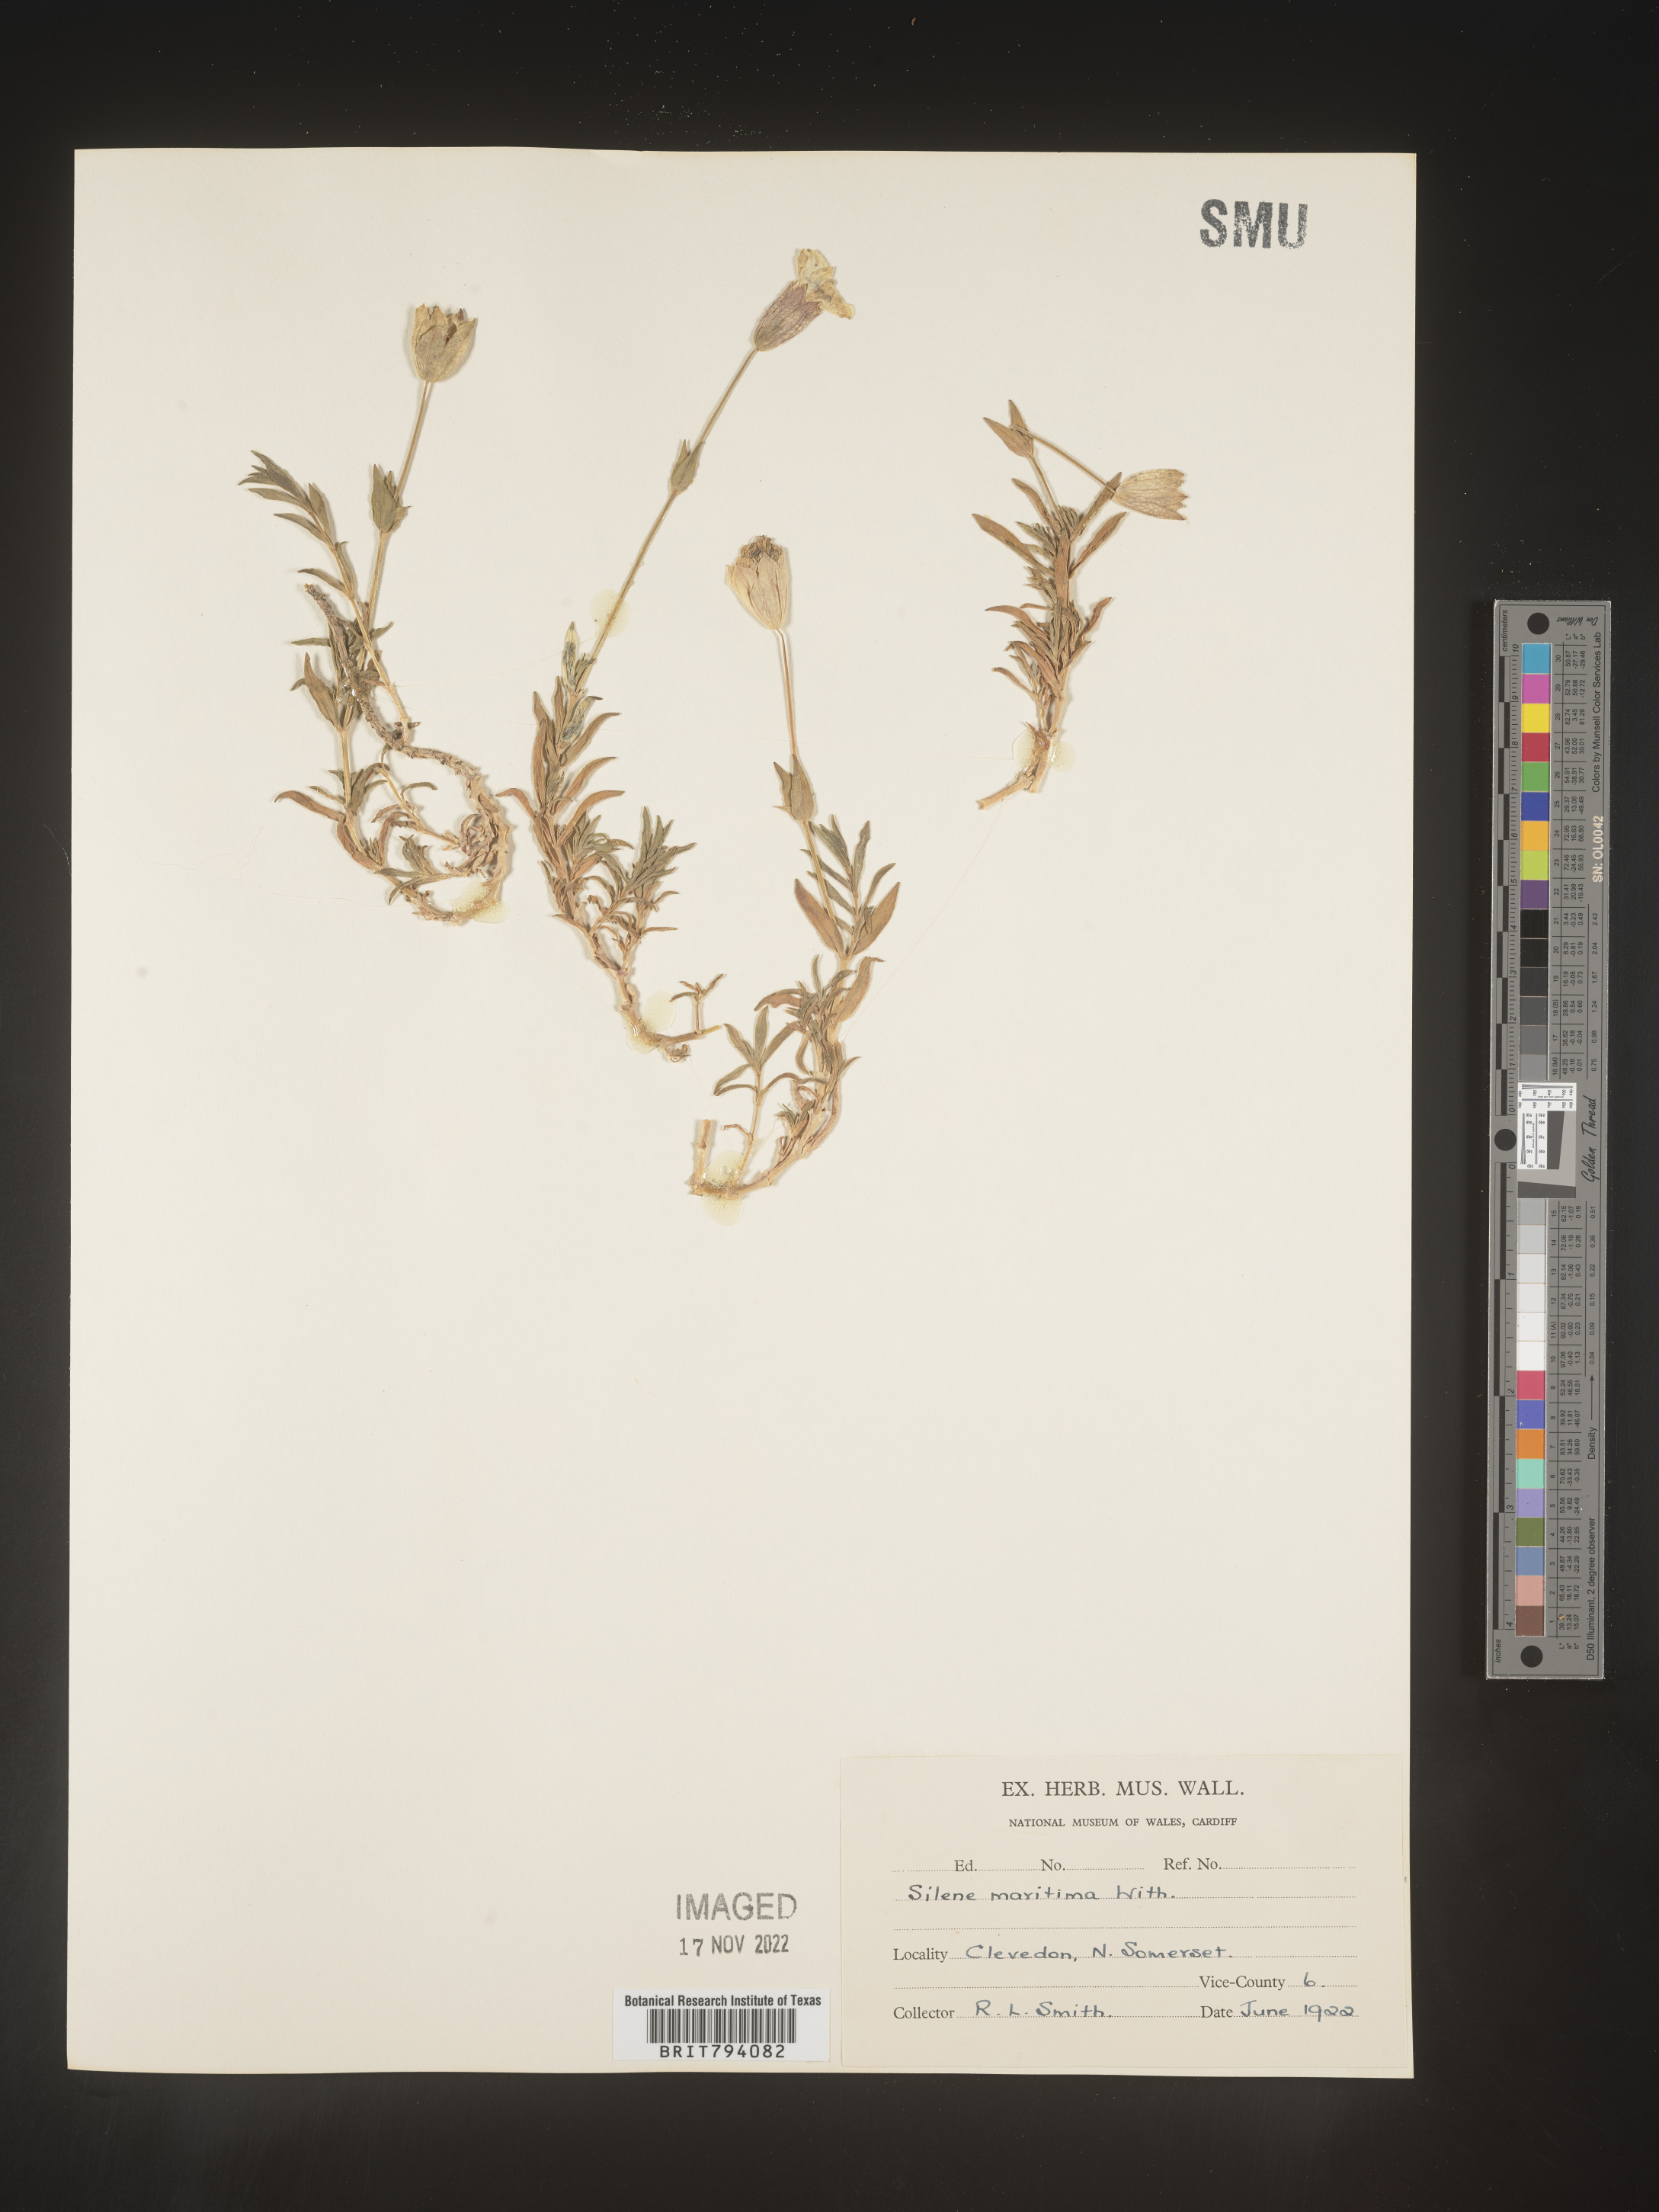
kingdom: Plantae
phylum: Tracheophyta
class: Magnoliopsida
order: Caryophyllales
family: Caryophyllaceae
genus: Silene
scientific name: Silene uniflora
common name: Sea campion
